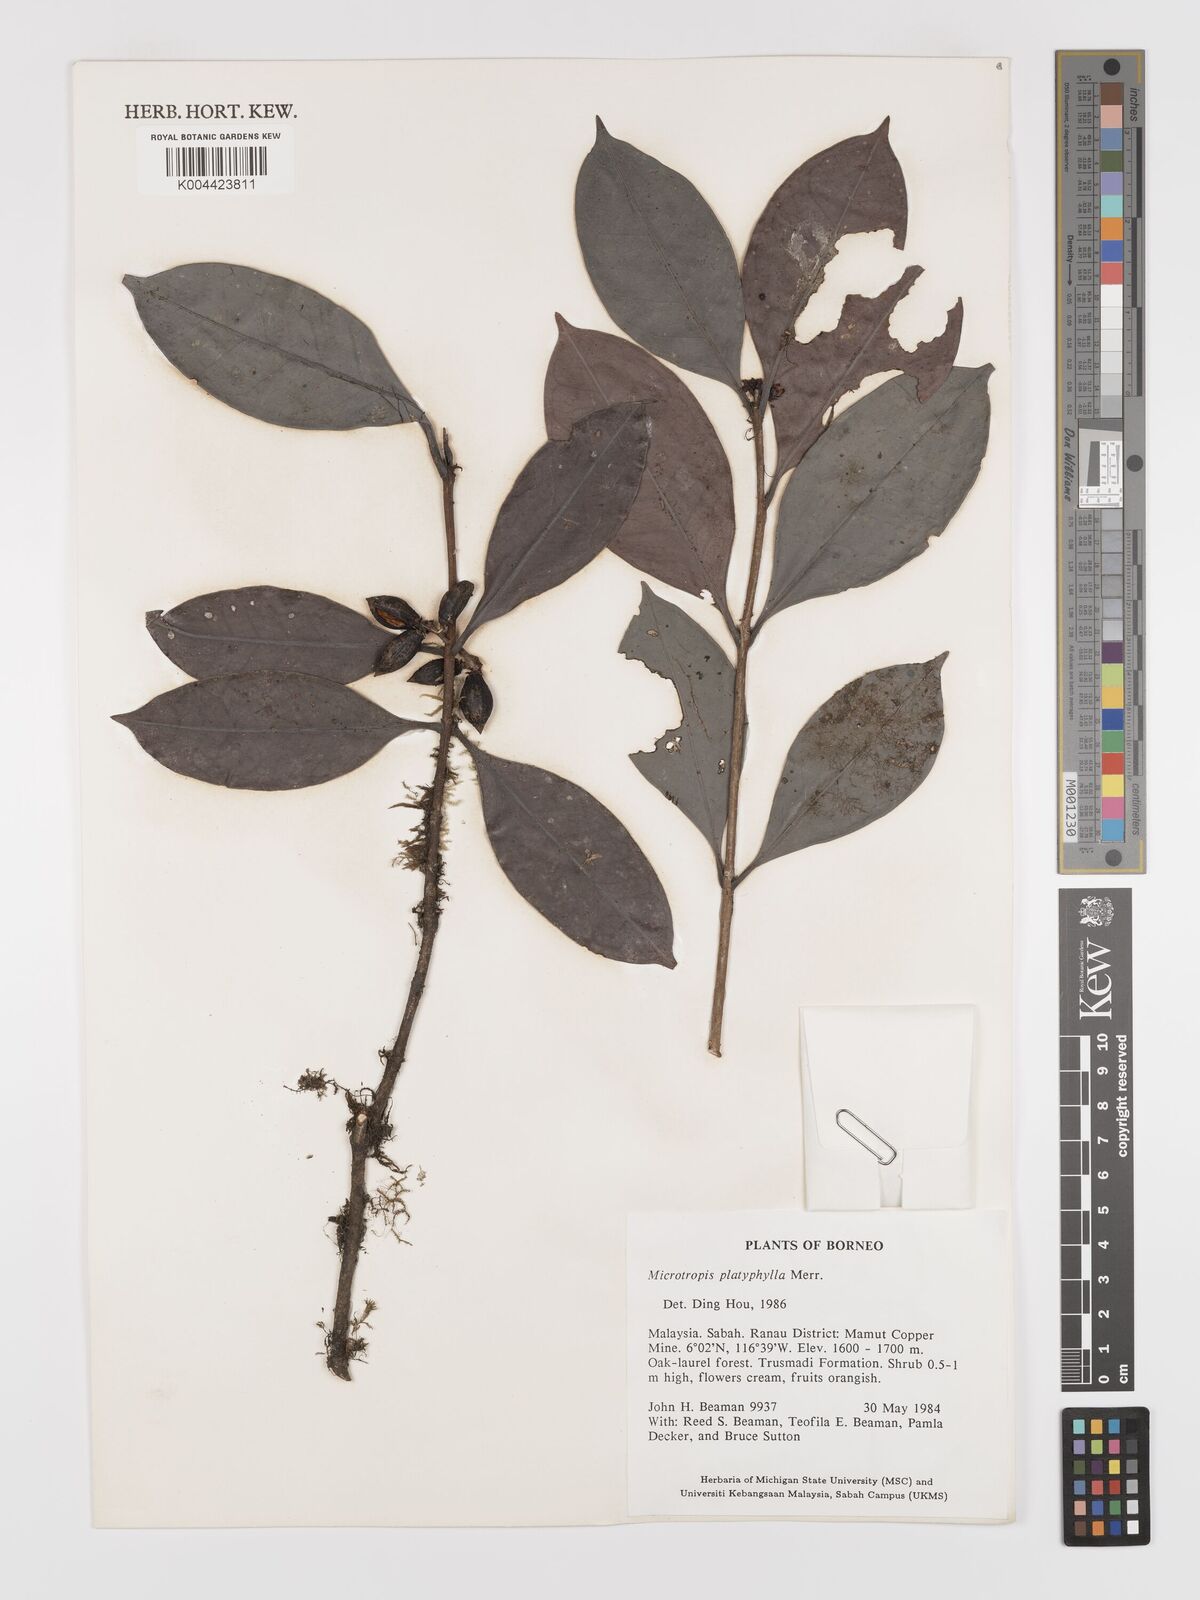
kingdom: Plantae
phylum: Tracheophyta
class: Magnoliopsida
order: Celastrales
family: Celastraceae
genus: Microtropis
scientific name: Microtropis platyphylla
